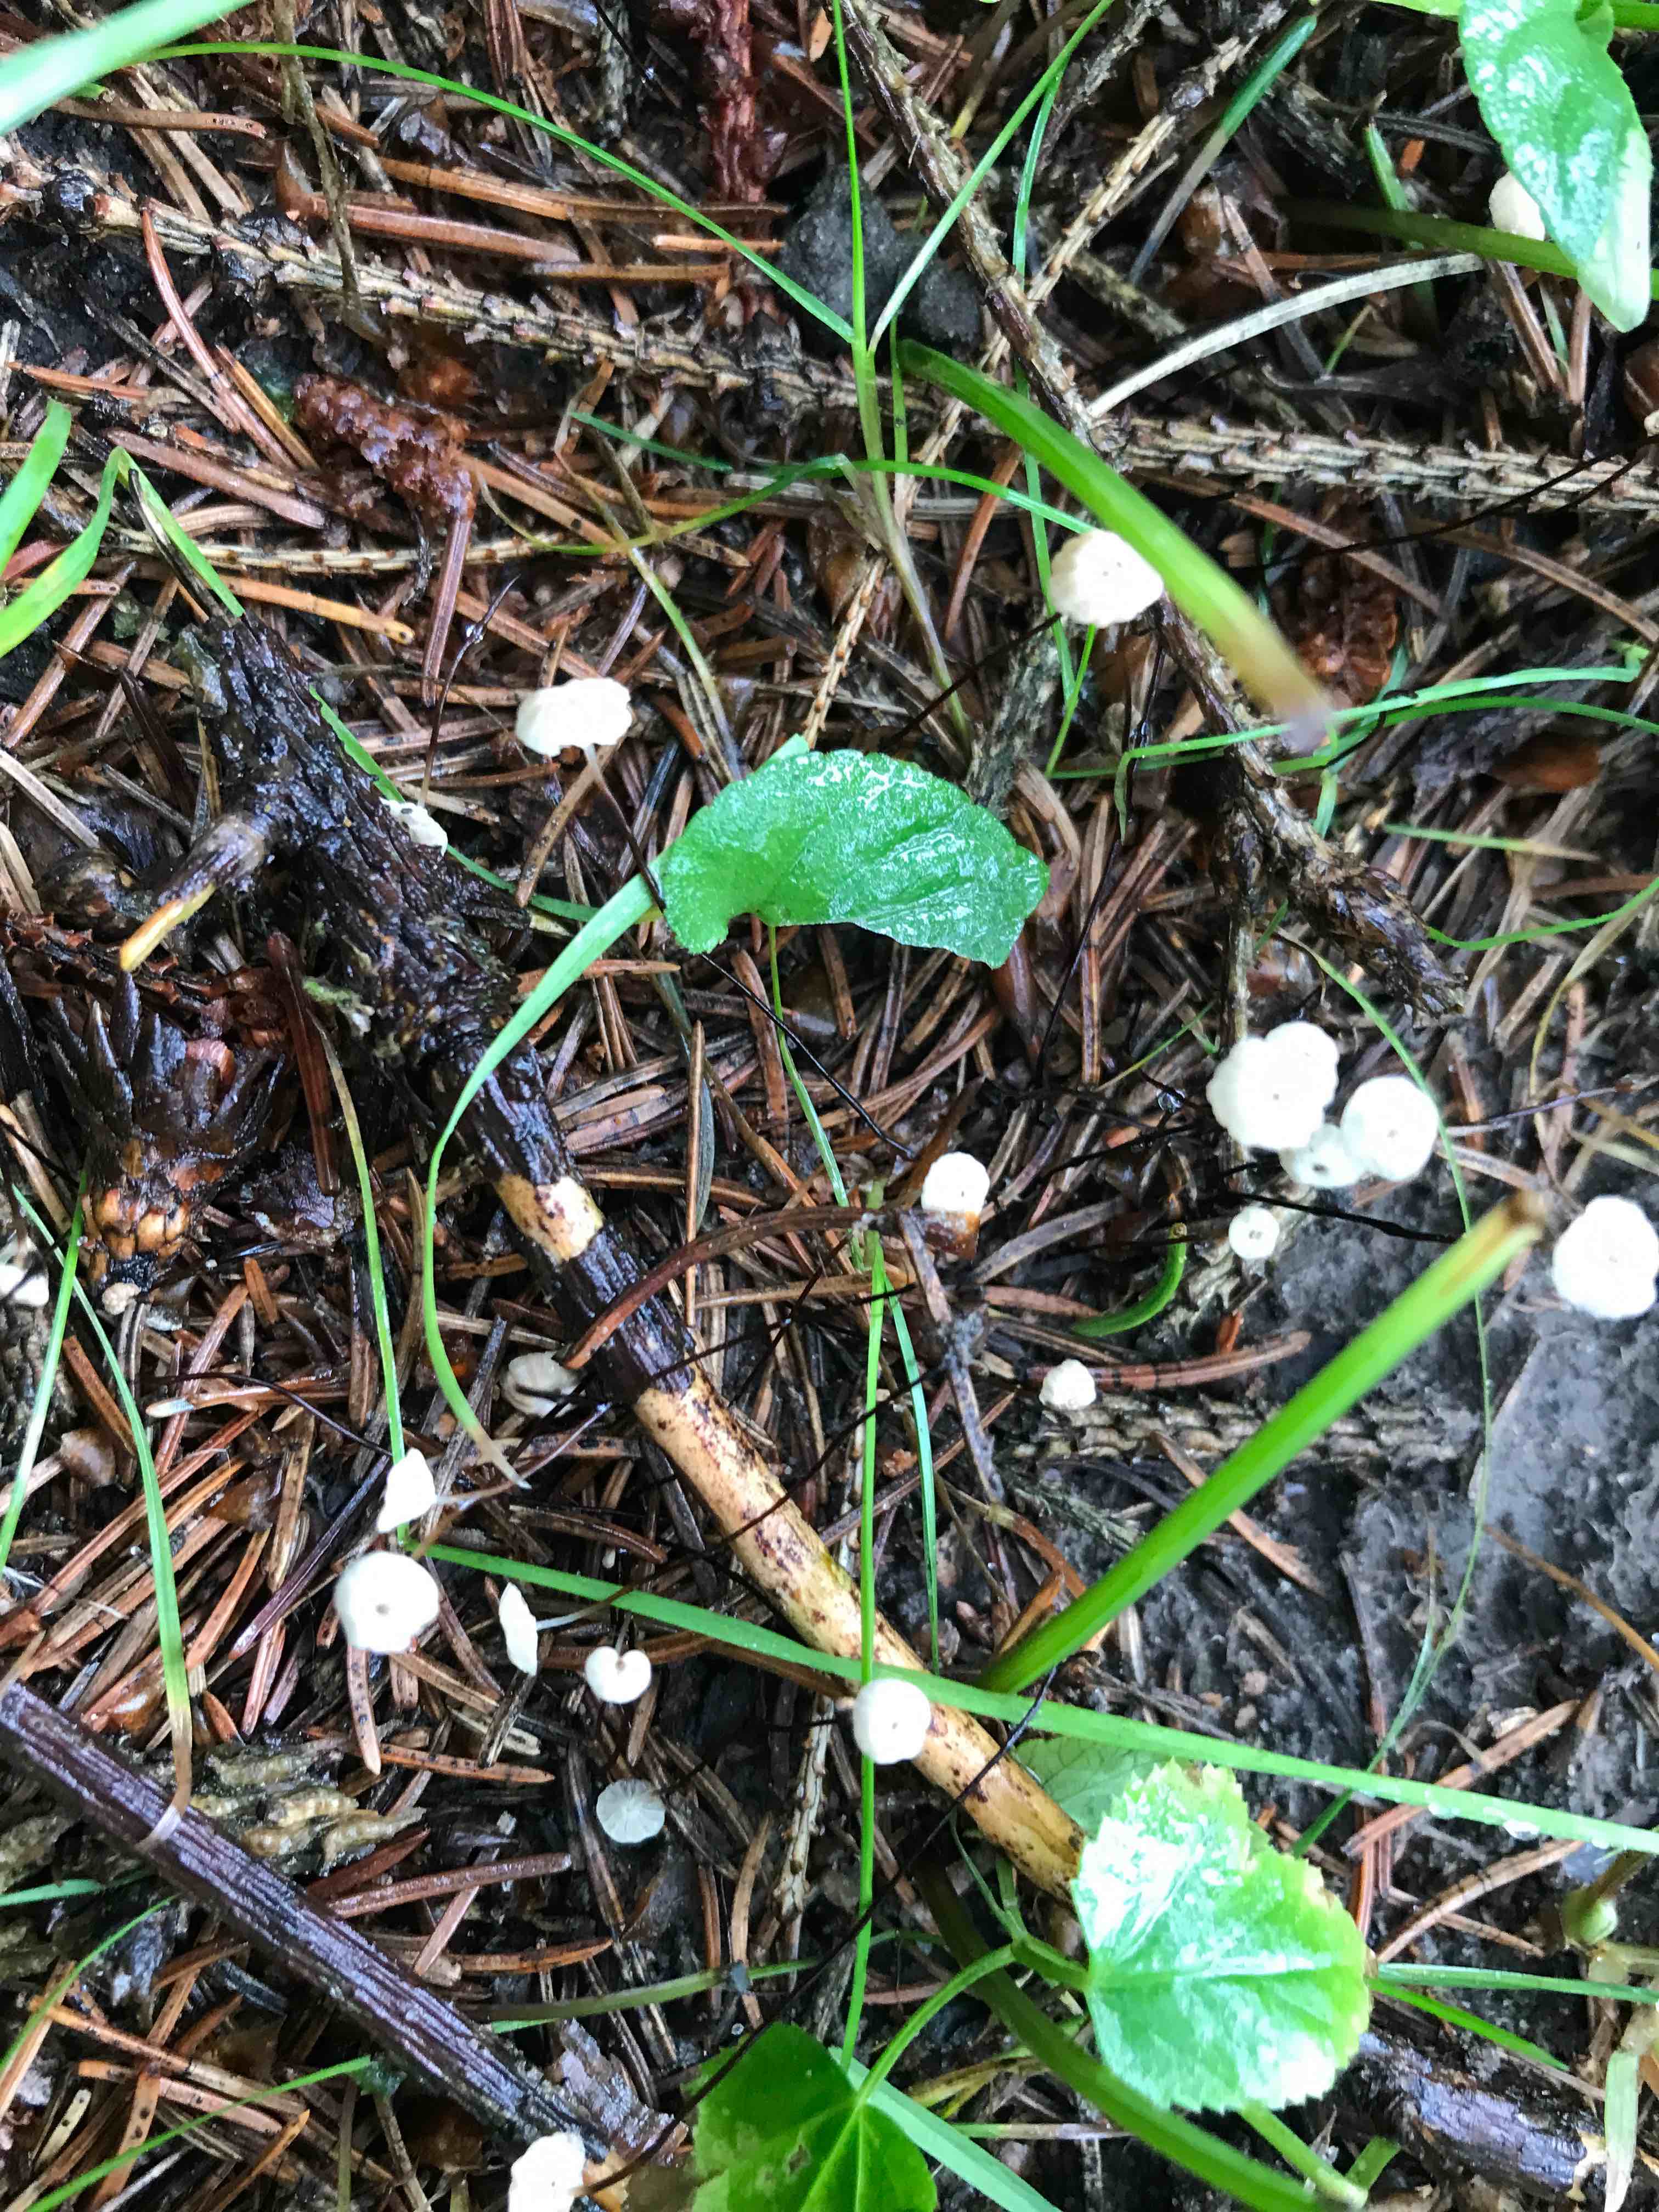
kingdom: Fungi
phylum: Basidiomycota
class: Agaricomycetes
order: Agaricales
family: Marasmiaceae
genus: Marasmius
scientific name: Marasmius wettsteinii
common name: Wettsteins bruskhat
